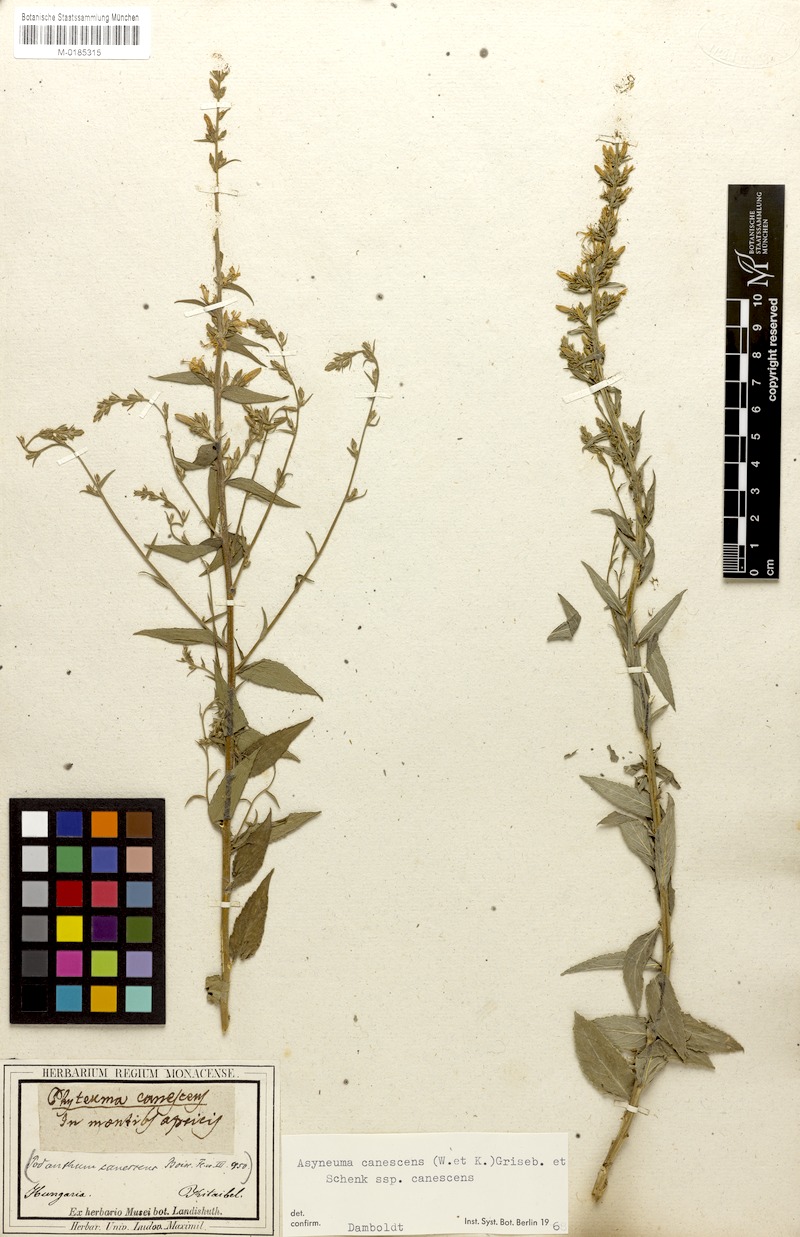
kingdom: Plantae
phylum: Tracheophyta
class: Magnoliopsida
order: Asterales
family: Campanulaceae
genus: Asyneuma
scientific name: Asyneuma canescens
